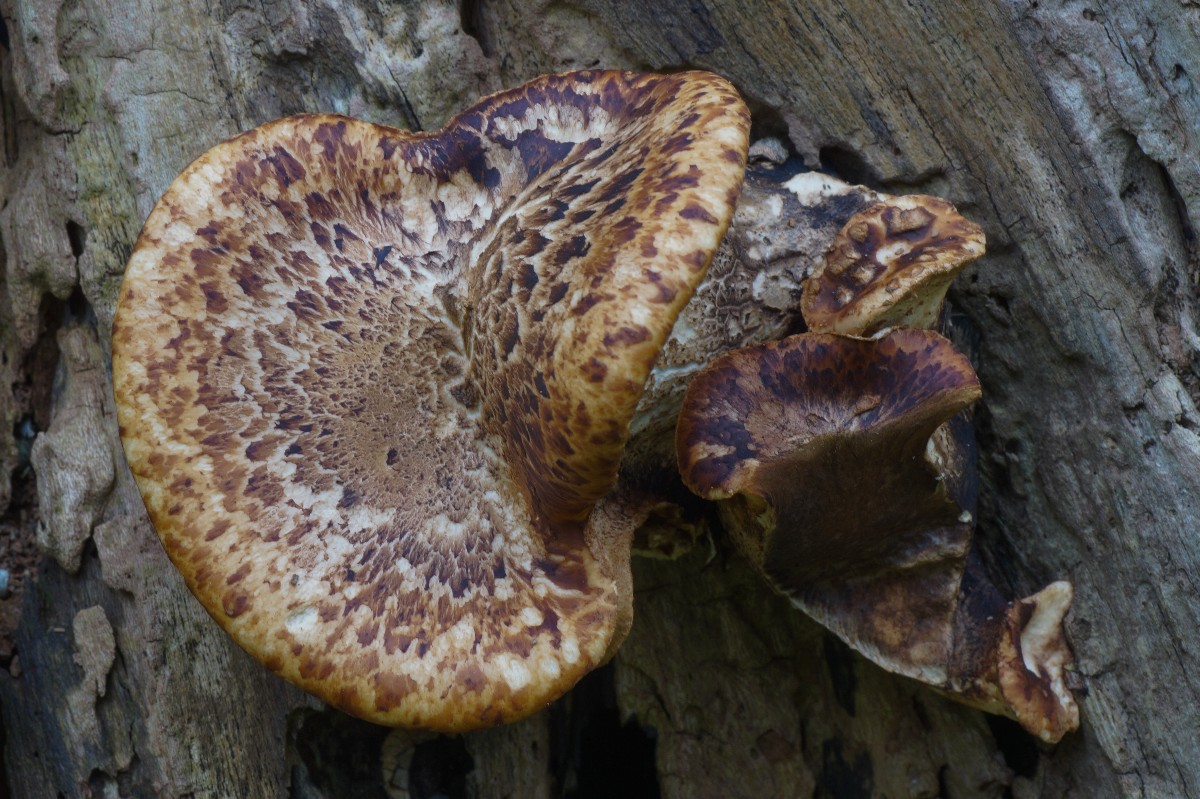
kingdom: Fungi
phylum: Basidiomycota
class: Agaricomycetes
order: Polyporales
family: Polyporaceae
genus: Cerioporus
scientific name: Cerioporus squamosus
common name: skællet stilkporesvamp
